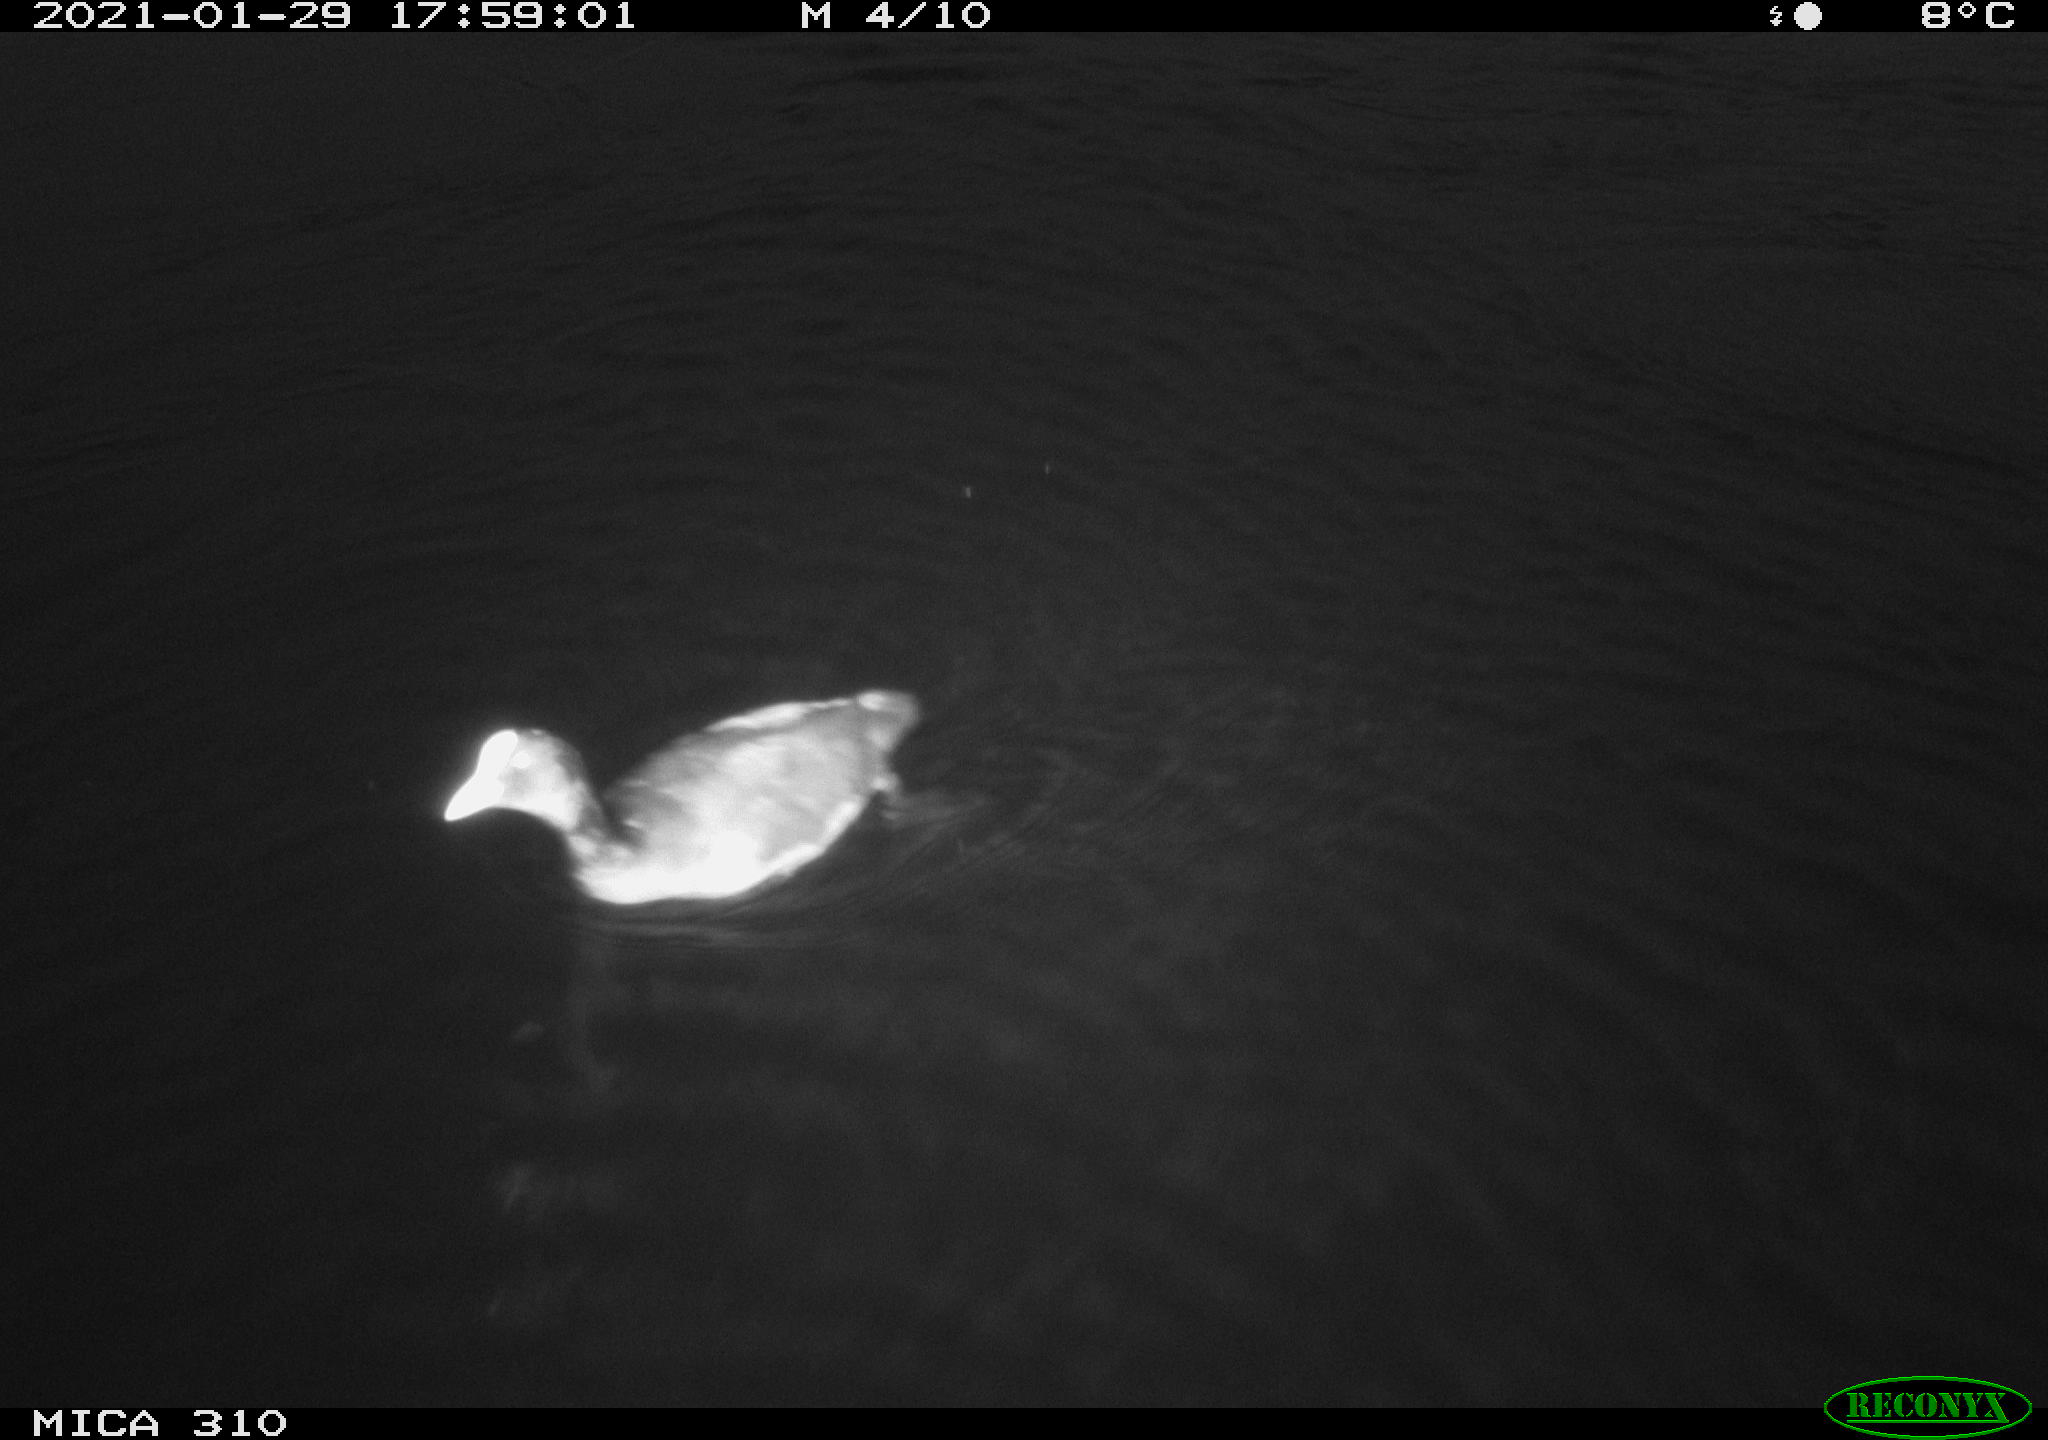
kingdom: Animalia
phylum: Chordata
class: Aves
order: Gruiformes
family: Rallidae
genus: Fulica
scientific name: Fulica atra
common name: Eurasian coot
